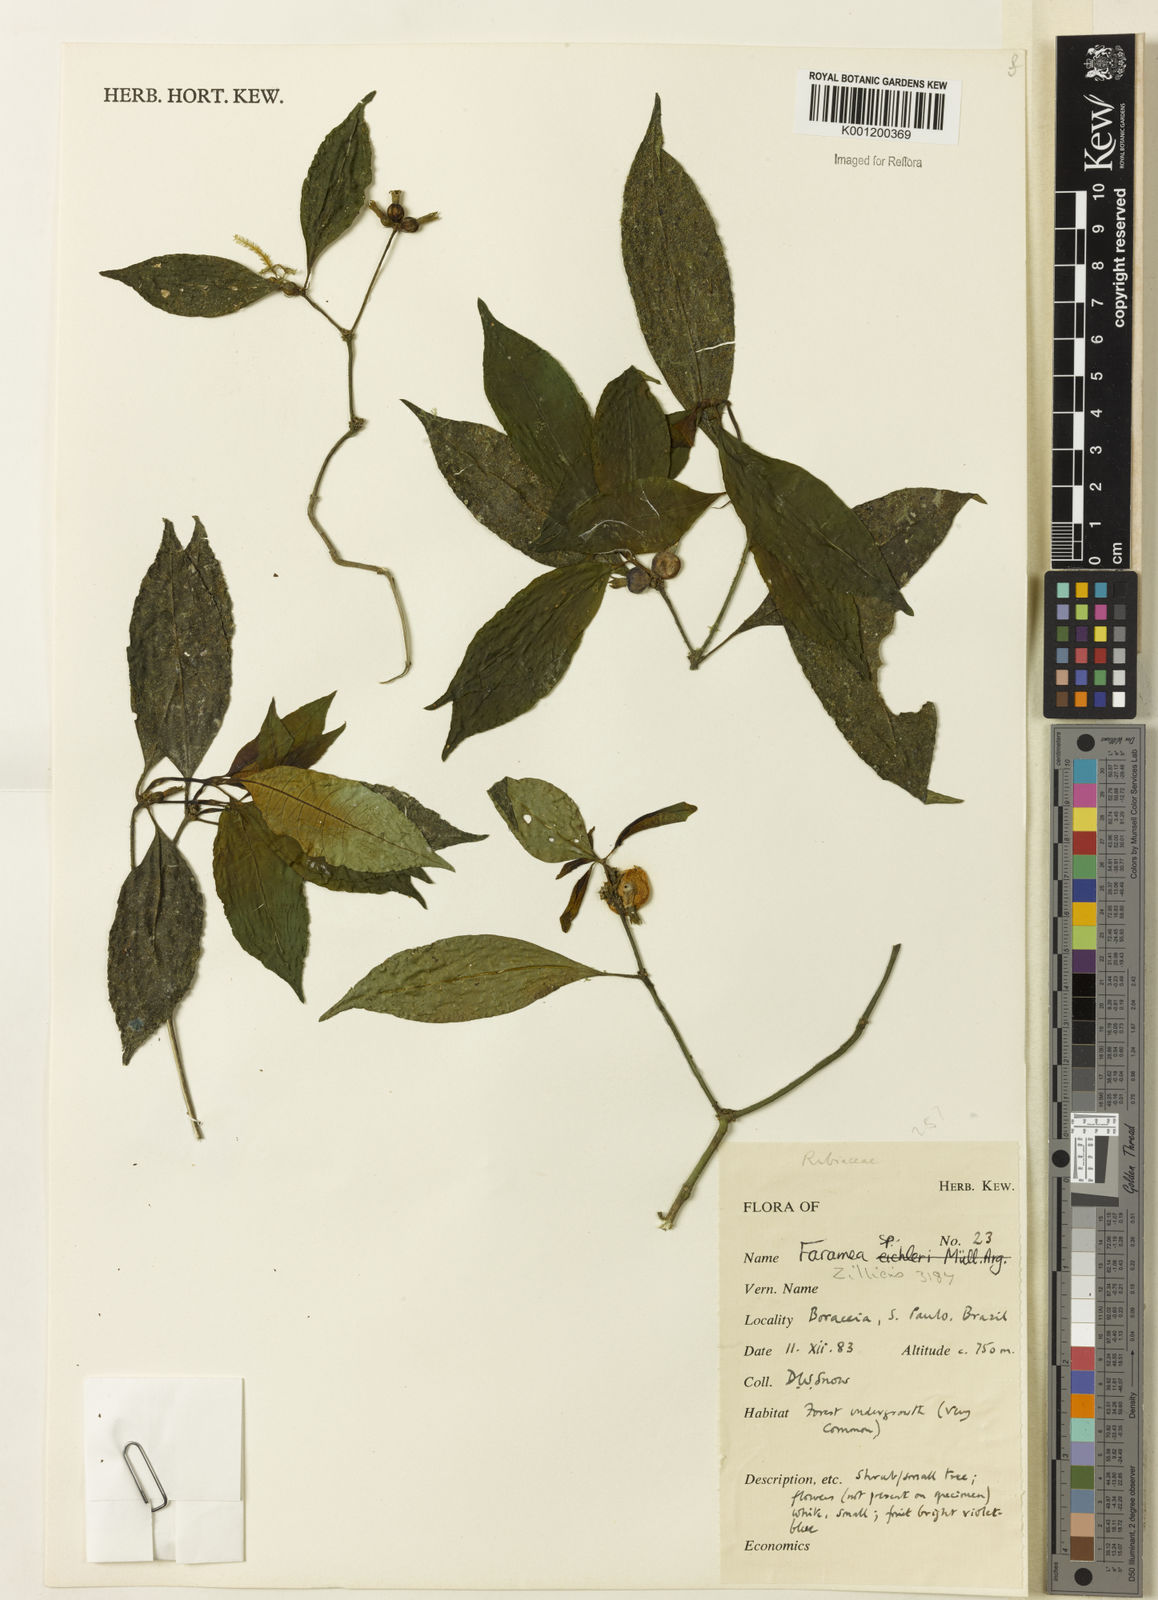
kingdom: Plantae
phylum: Tracheophyta
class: Magnoliopsida
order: Gentianales
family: Rubiaceae
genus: Psychotria
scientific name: Psychotria
